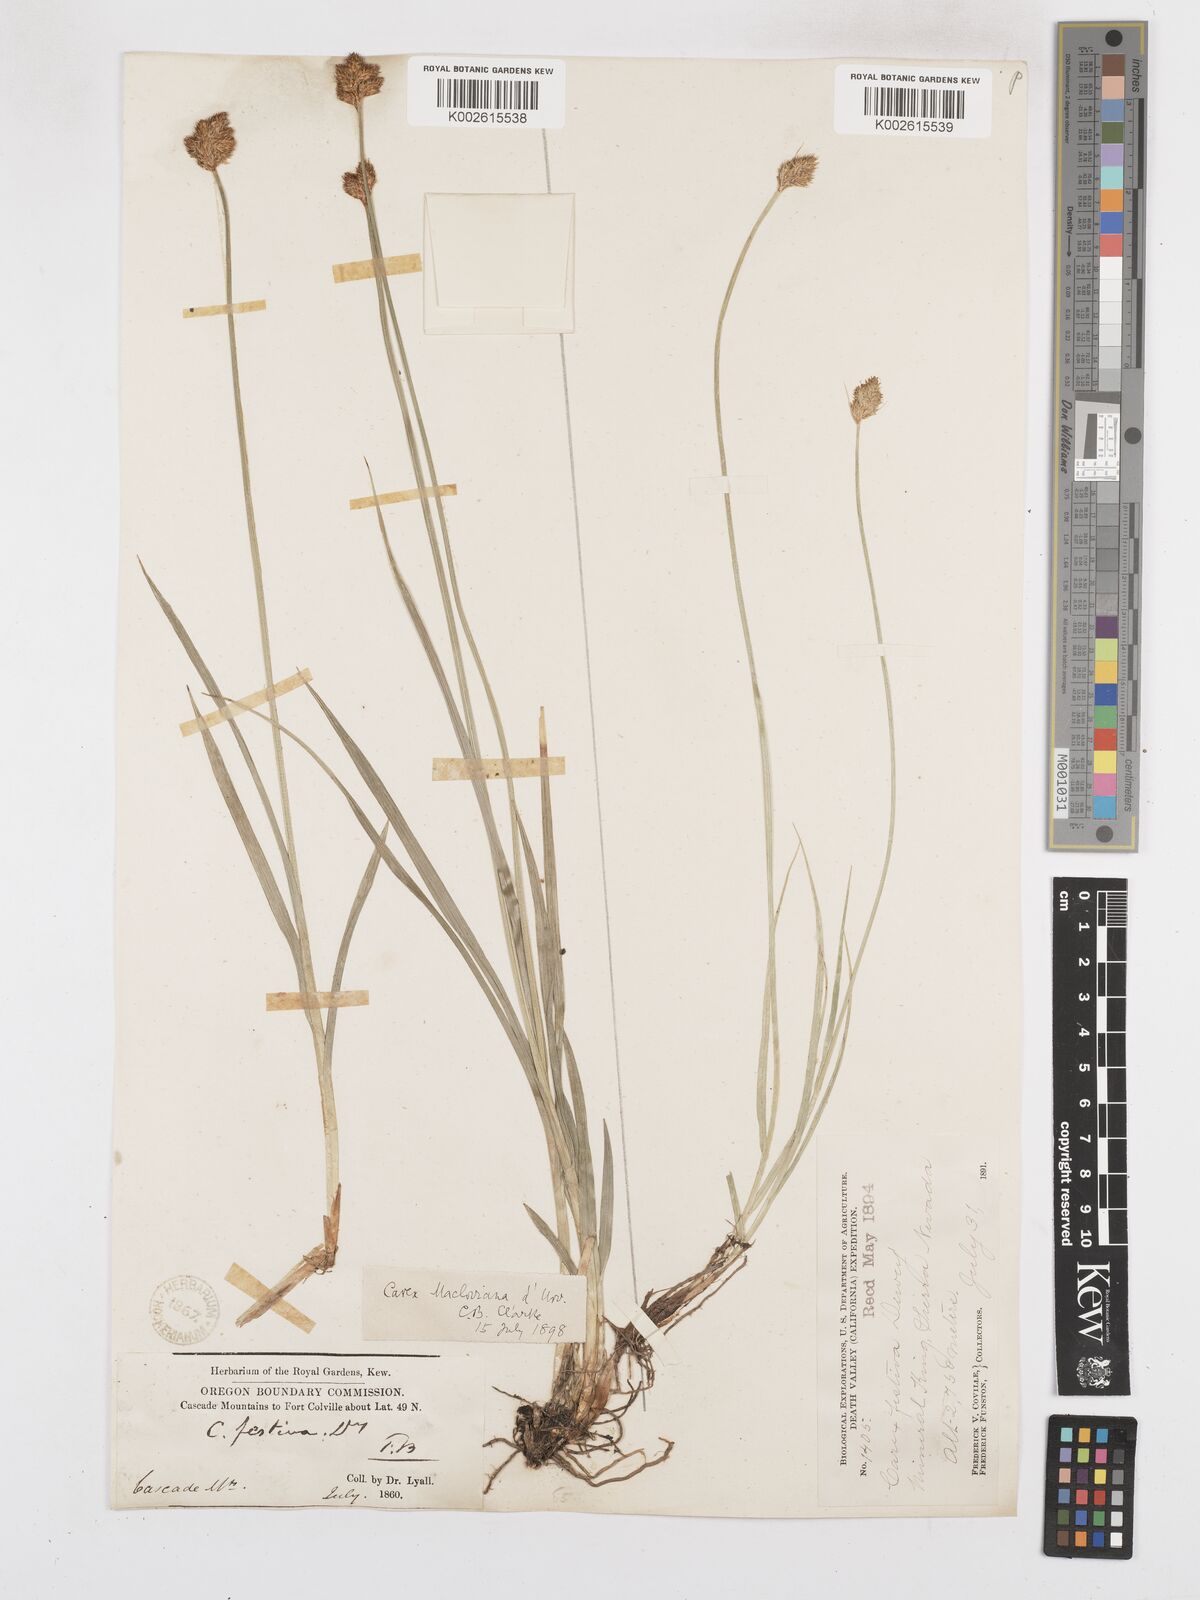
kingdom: Plantae
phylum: Tracheophyta
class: Liliopsida
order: Poales
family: Cyperaceae
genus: Carex
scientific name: Carex subfusca
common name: Brown sedge
